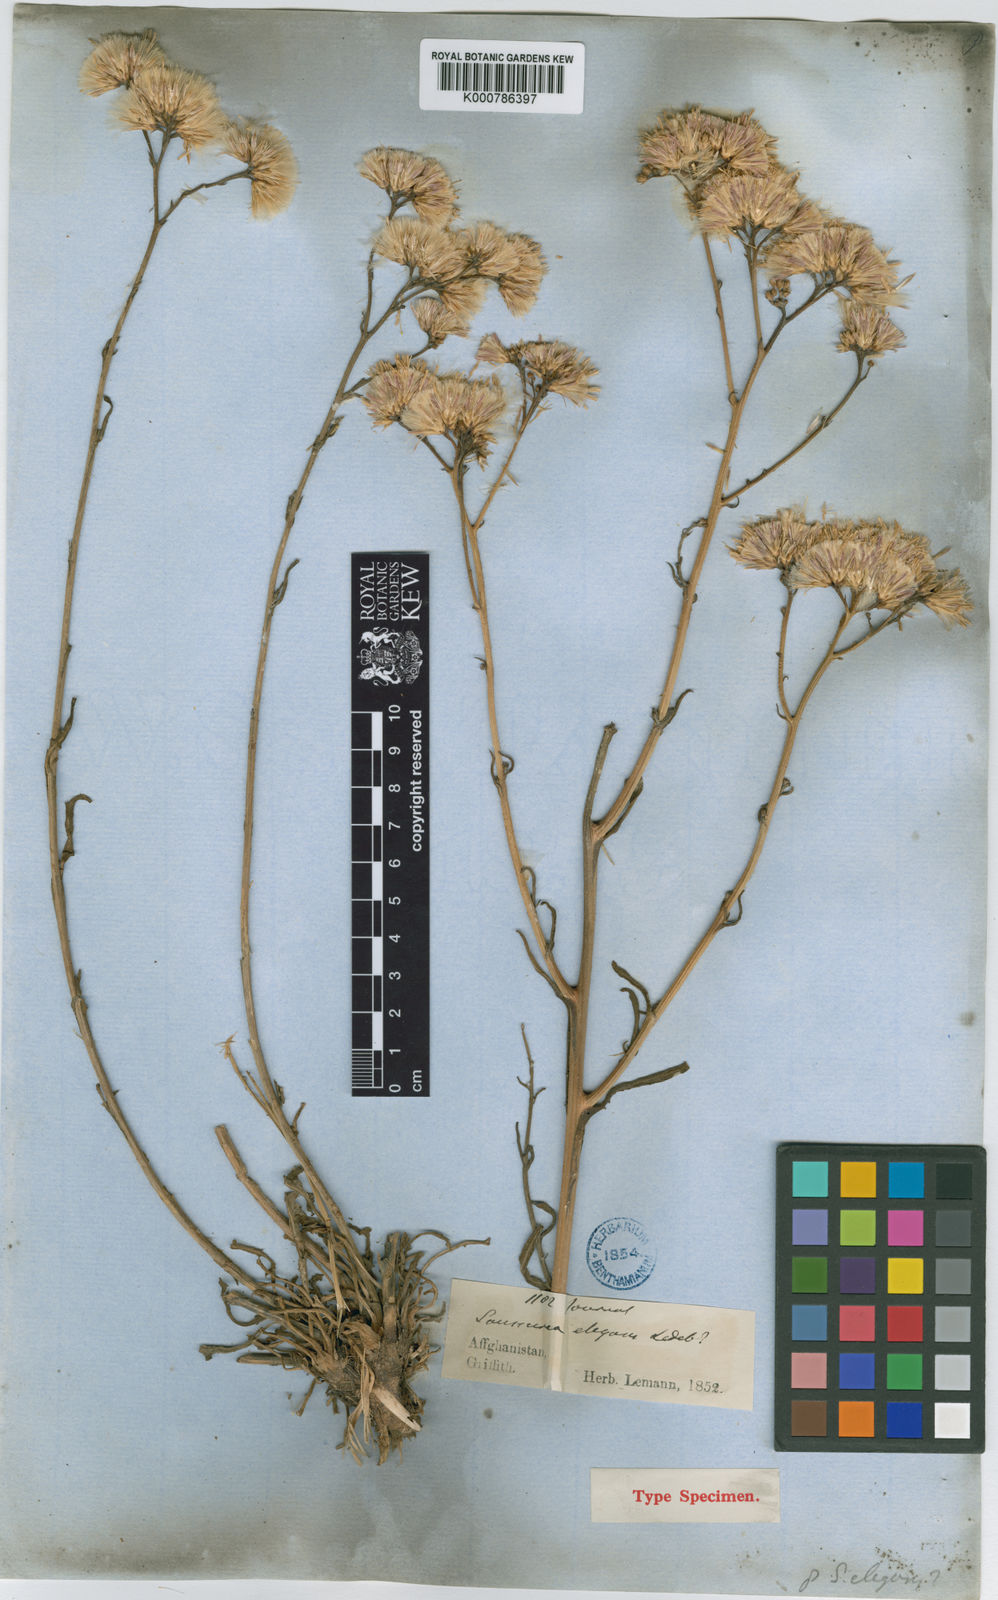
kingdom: Plantae
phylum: Tracheophyta
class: Magnoliopsida
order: Asterales
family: Asteraceae
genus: Saussurea
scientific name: Saussurea griffithii
